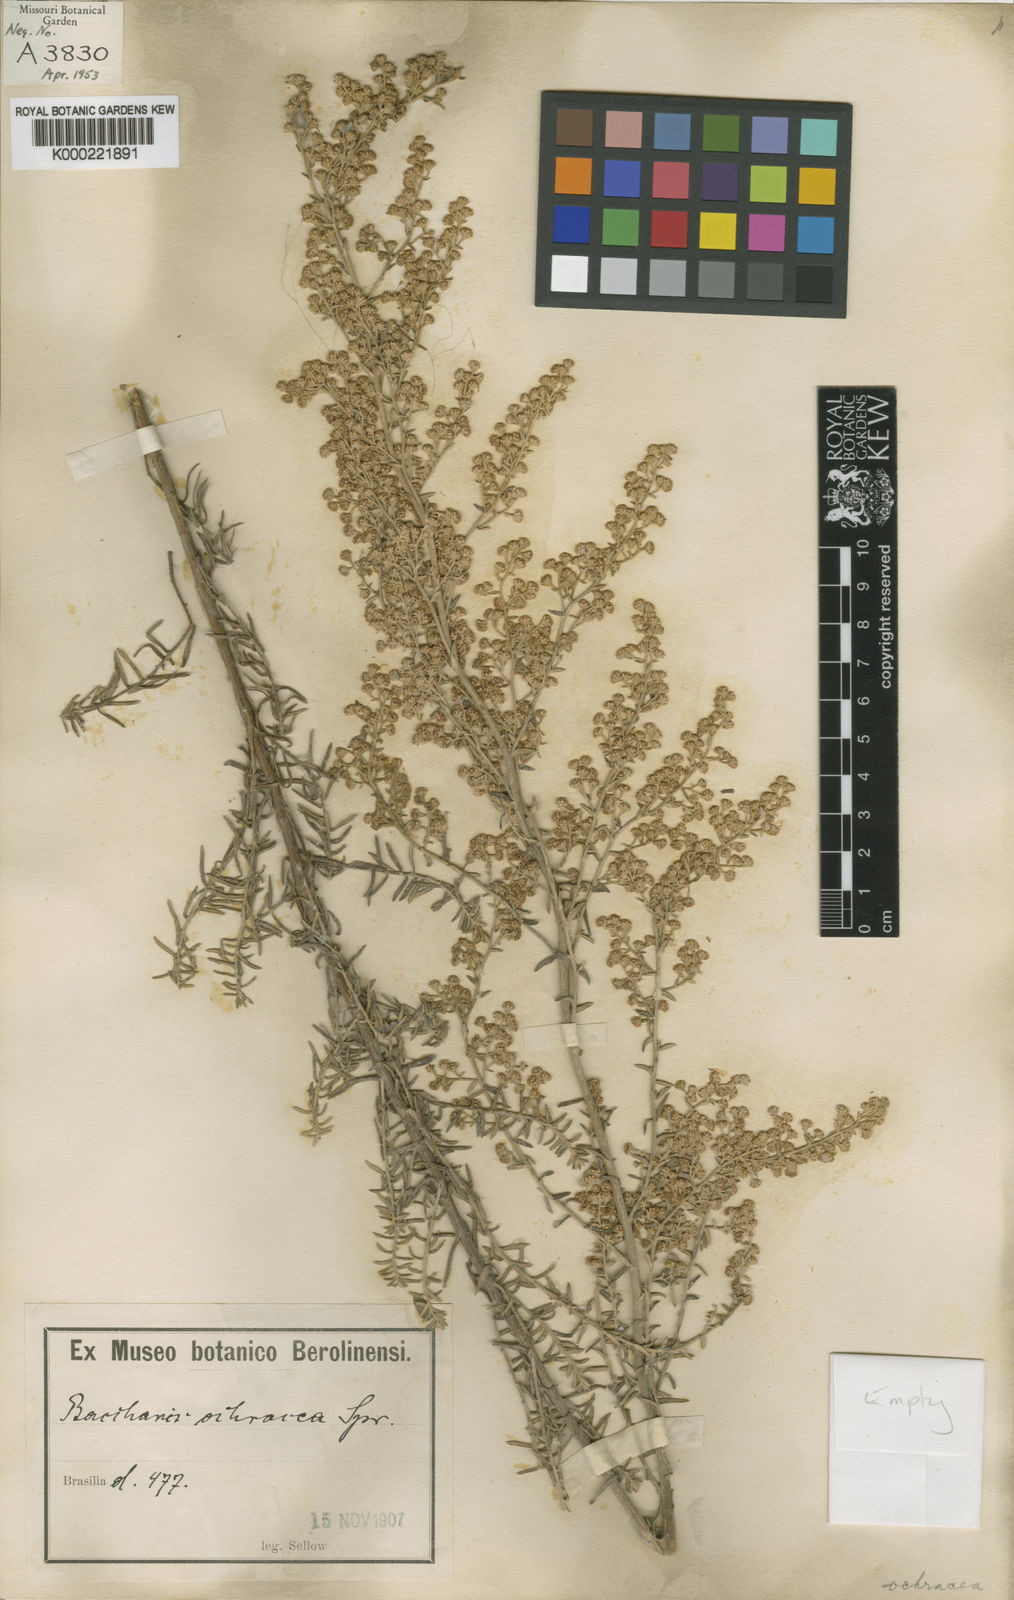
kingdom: Plantae
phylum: Tracheophyta
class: Magnoliopsida
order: Asterales
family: Asteraceae
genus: Baccharis
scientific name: Baccharis ochracea
